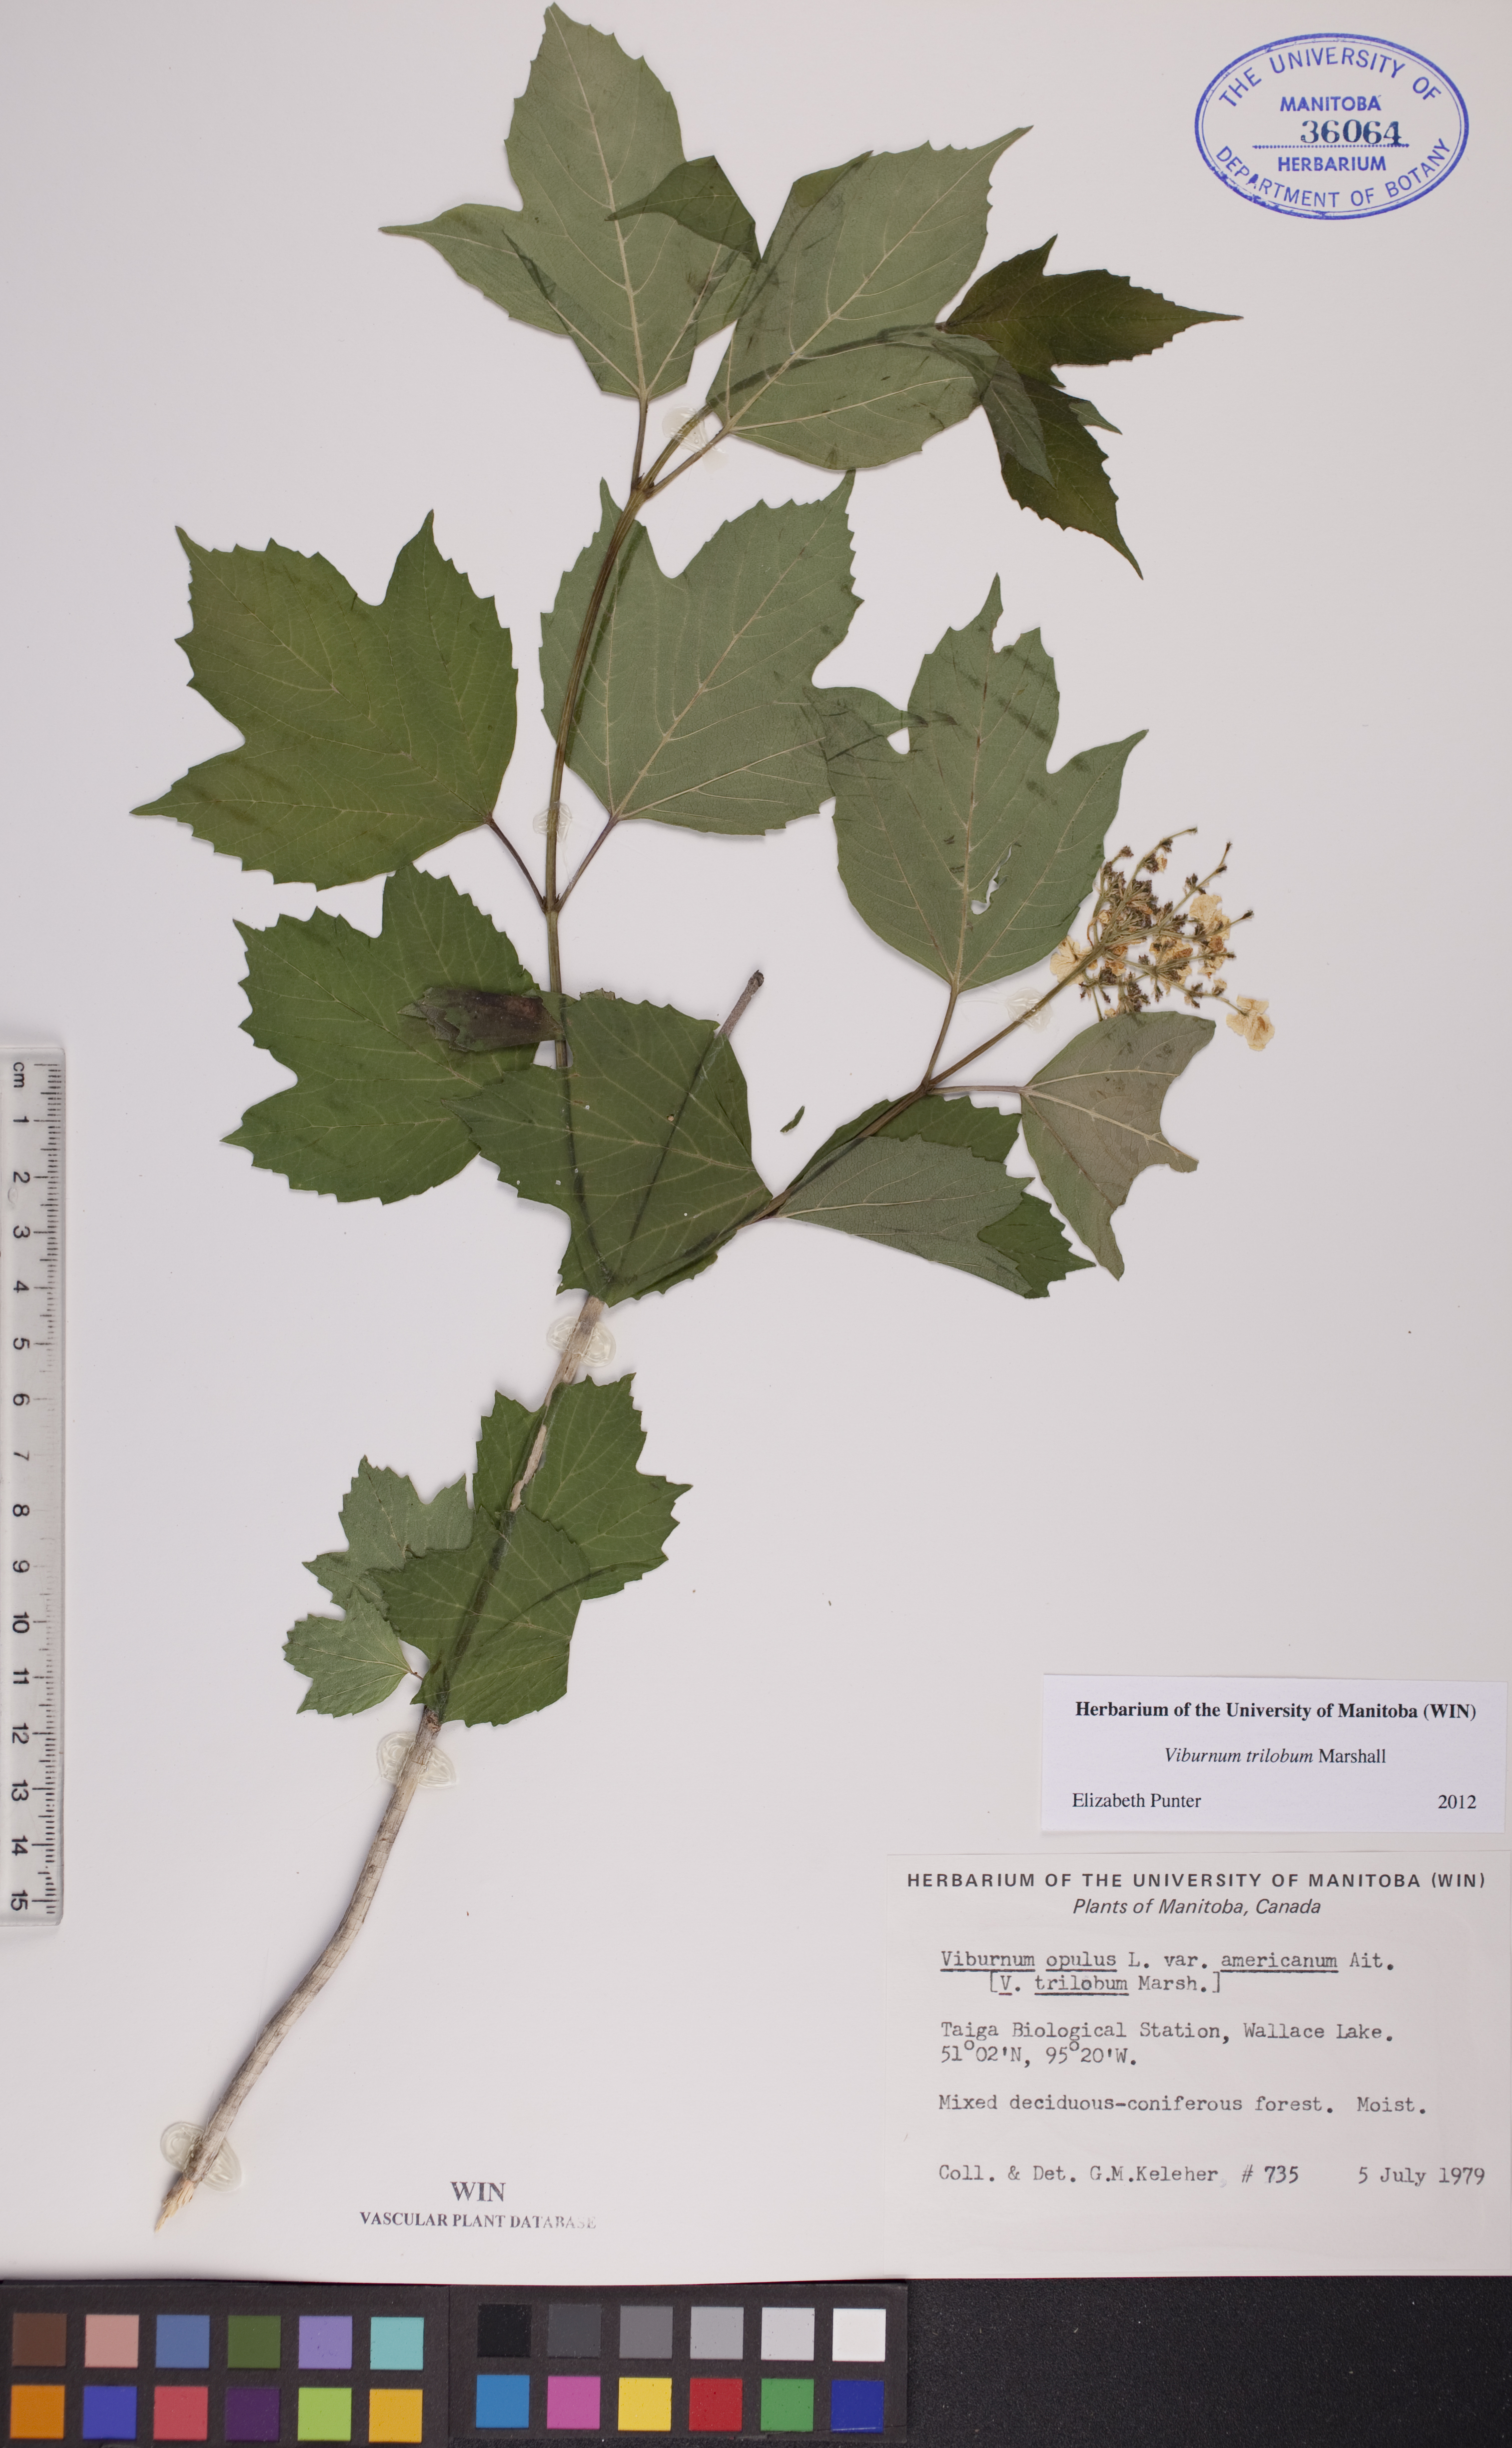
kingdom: Plantae
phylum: Tracheophyta
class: Magnoliopsida
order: Dipsacales
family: Viburnaceae
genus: Viburnum
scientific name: Viburnum trilobum
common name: American cranberrybush
